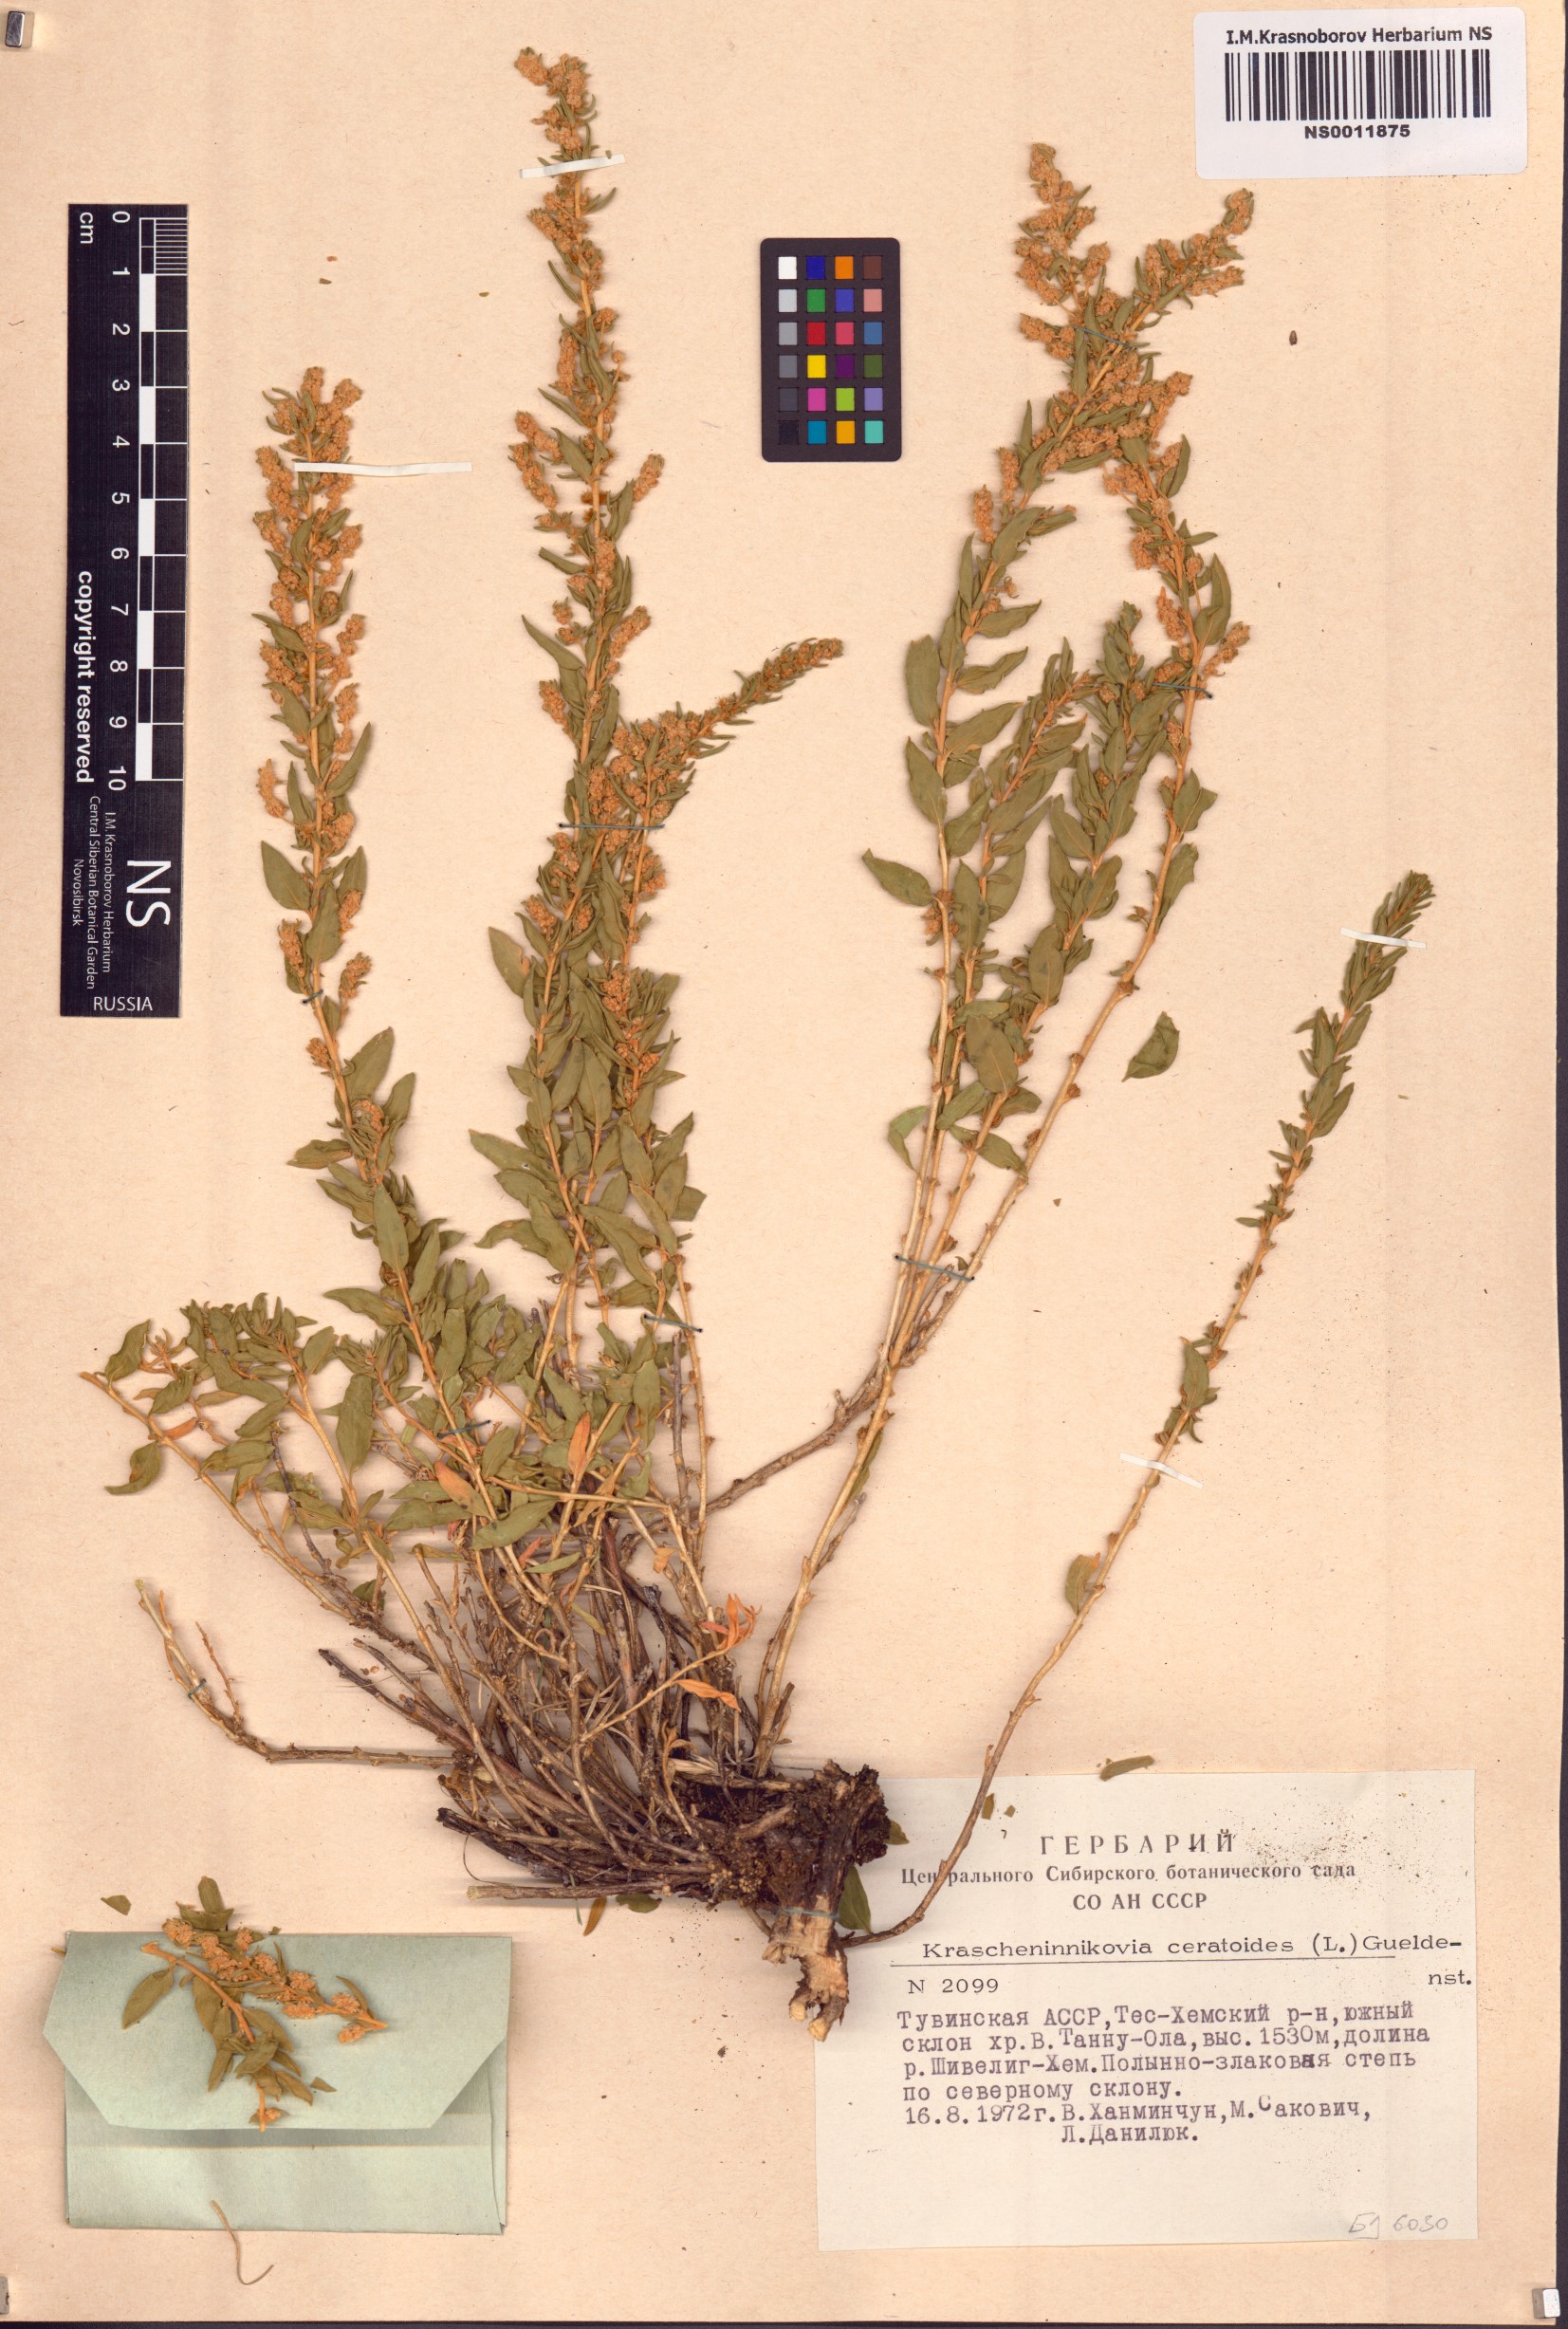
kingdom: Plantae
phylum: Tracheophyta
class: Magnoliopsida
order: Caryophyllales
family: Amaranthaceae
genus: Krascheninnikovia
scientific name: Krascheninnikovia ceratoides
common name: Pamirian winterfat
